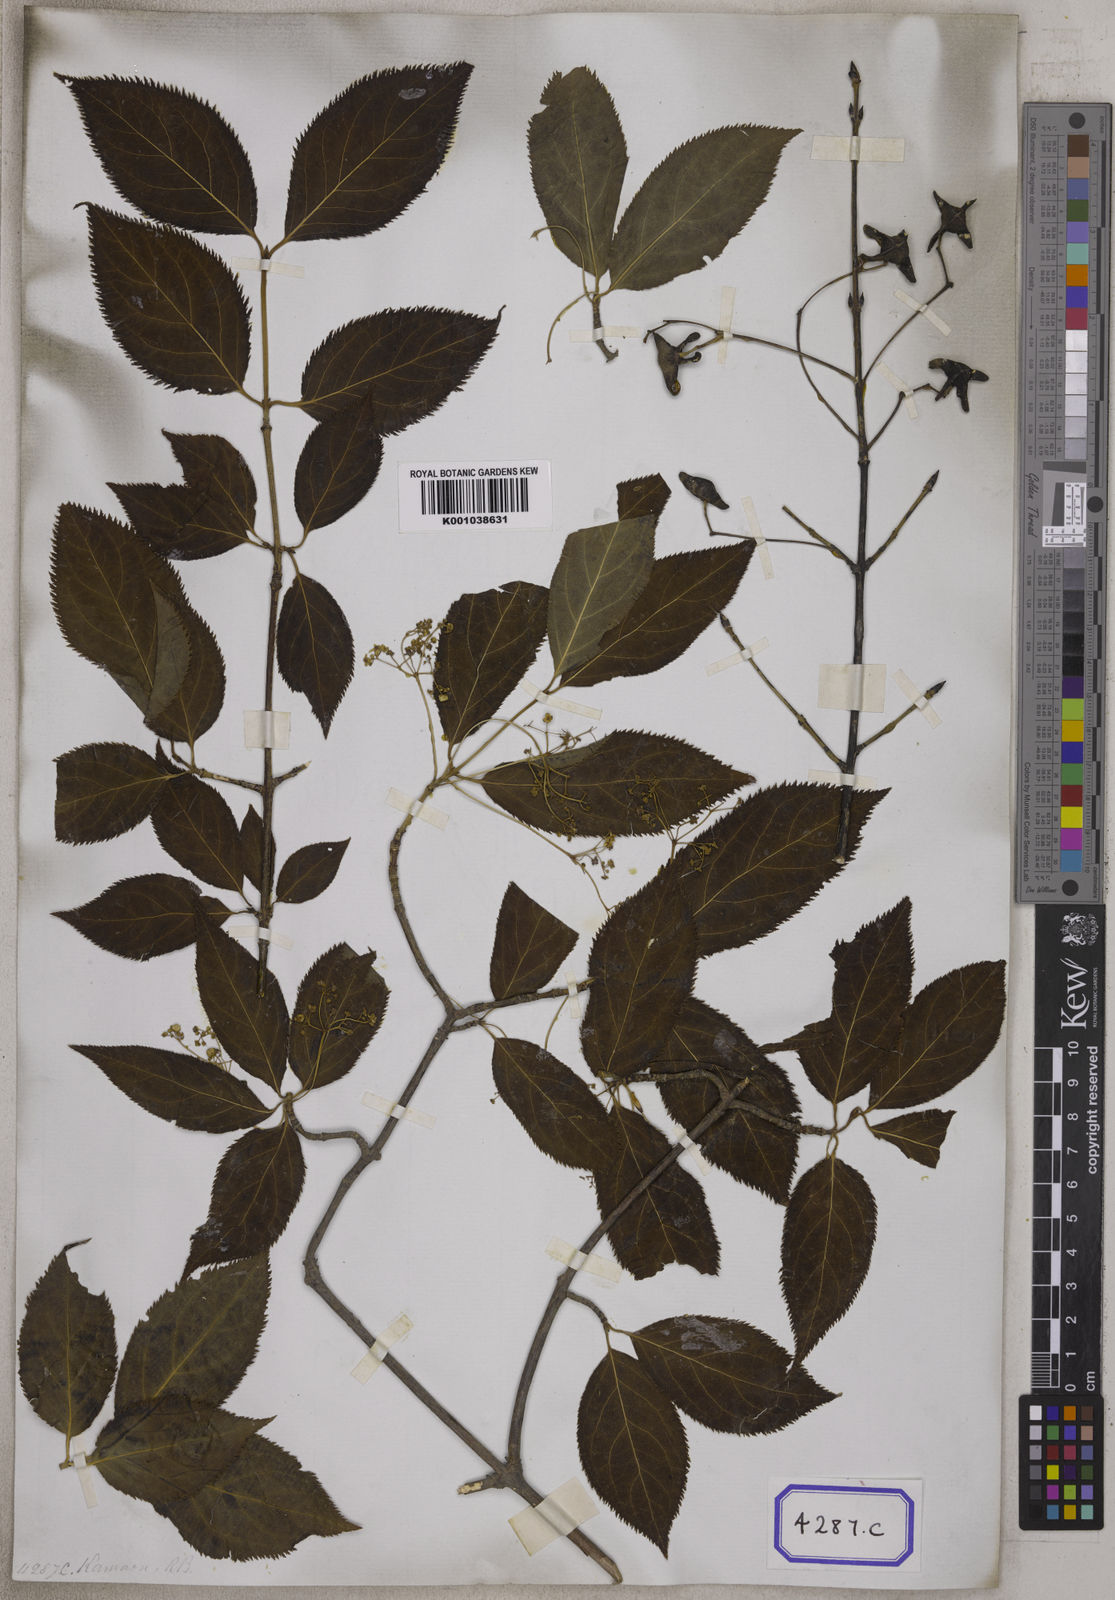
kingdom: Plantae
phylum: Tracheophyta
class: Magnoliopsida
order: Celastrales
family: Celastraceae
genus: Euonymus
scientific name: Euonymus fimbriatus
